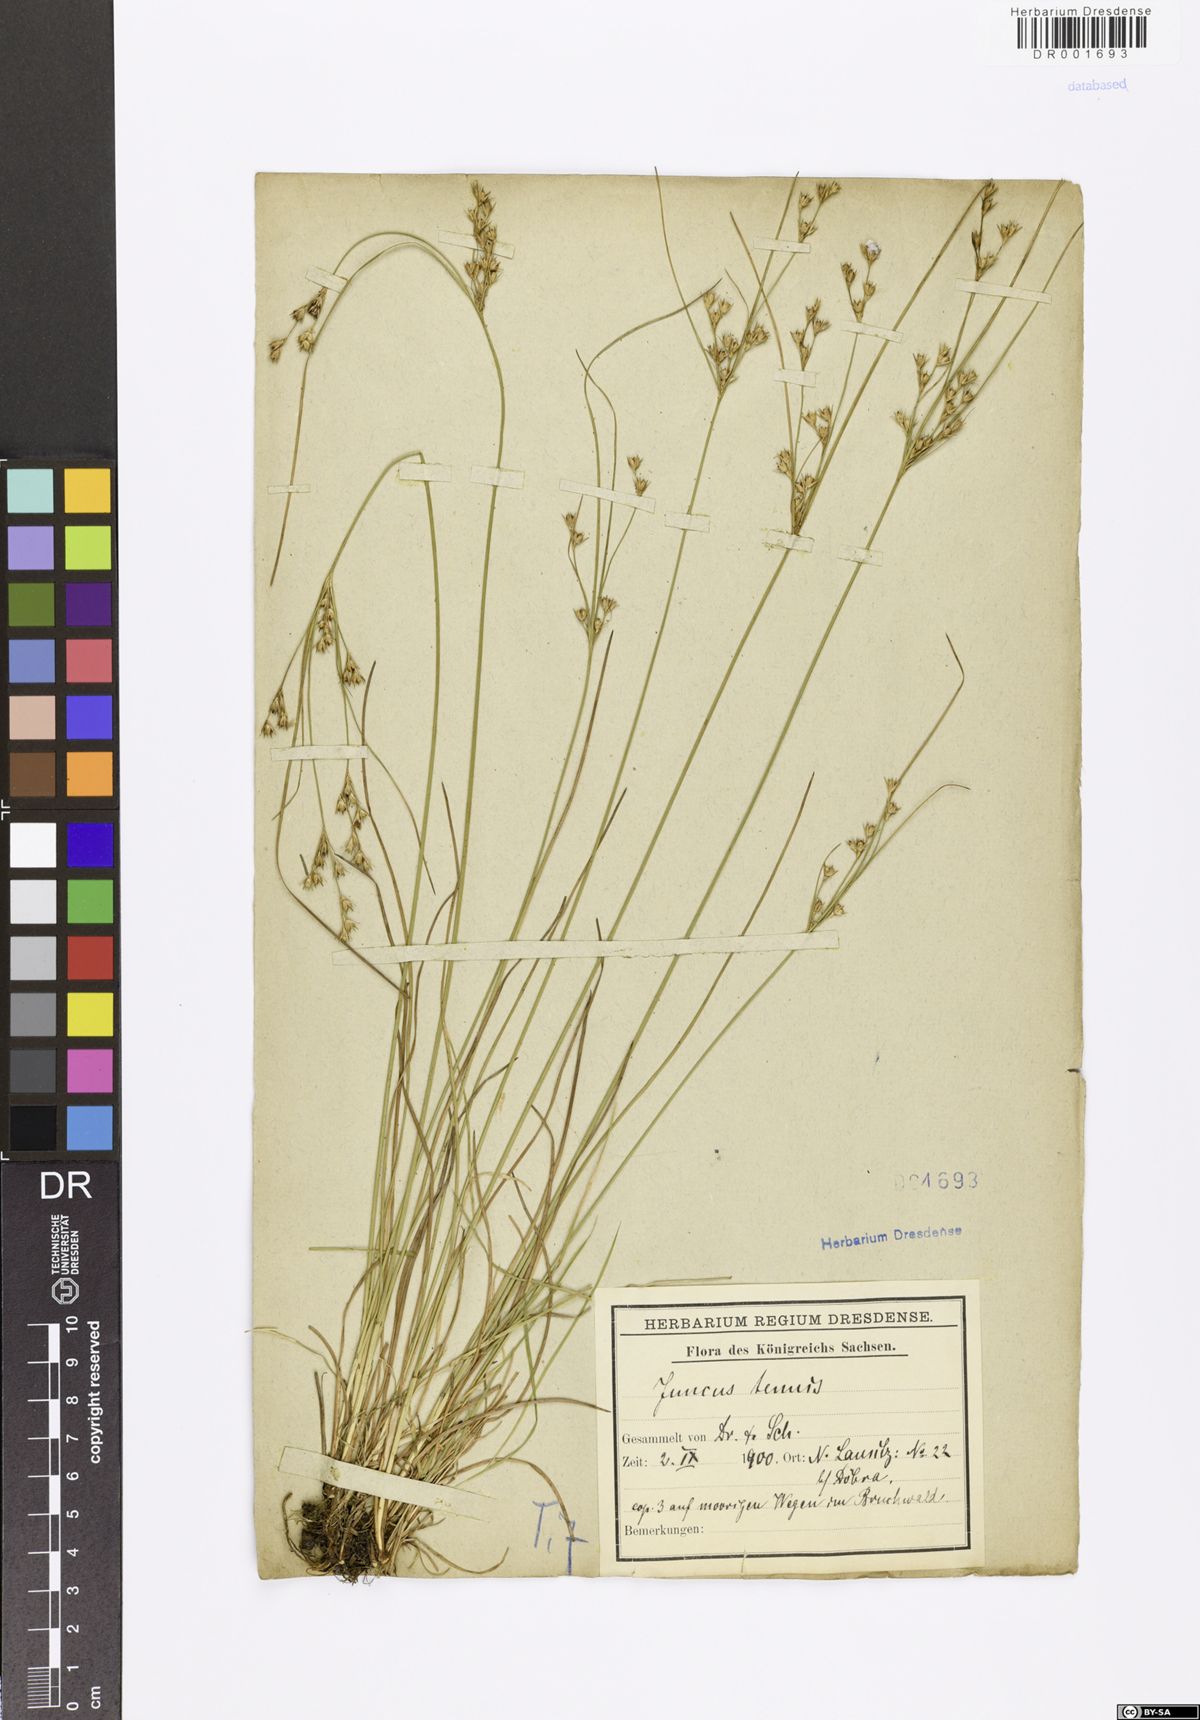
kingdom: Plantae
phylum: Tracheophyta
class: Liliopsida
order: Poales
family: Juncaceae
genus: Juncus
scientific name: Juncus tenuis
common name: Slender rush
